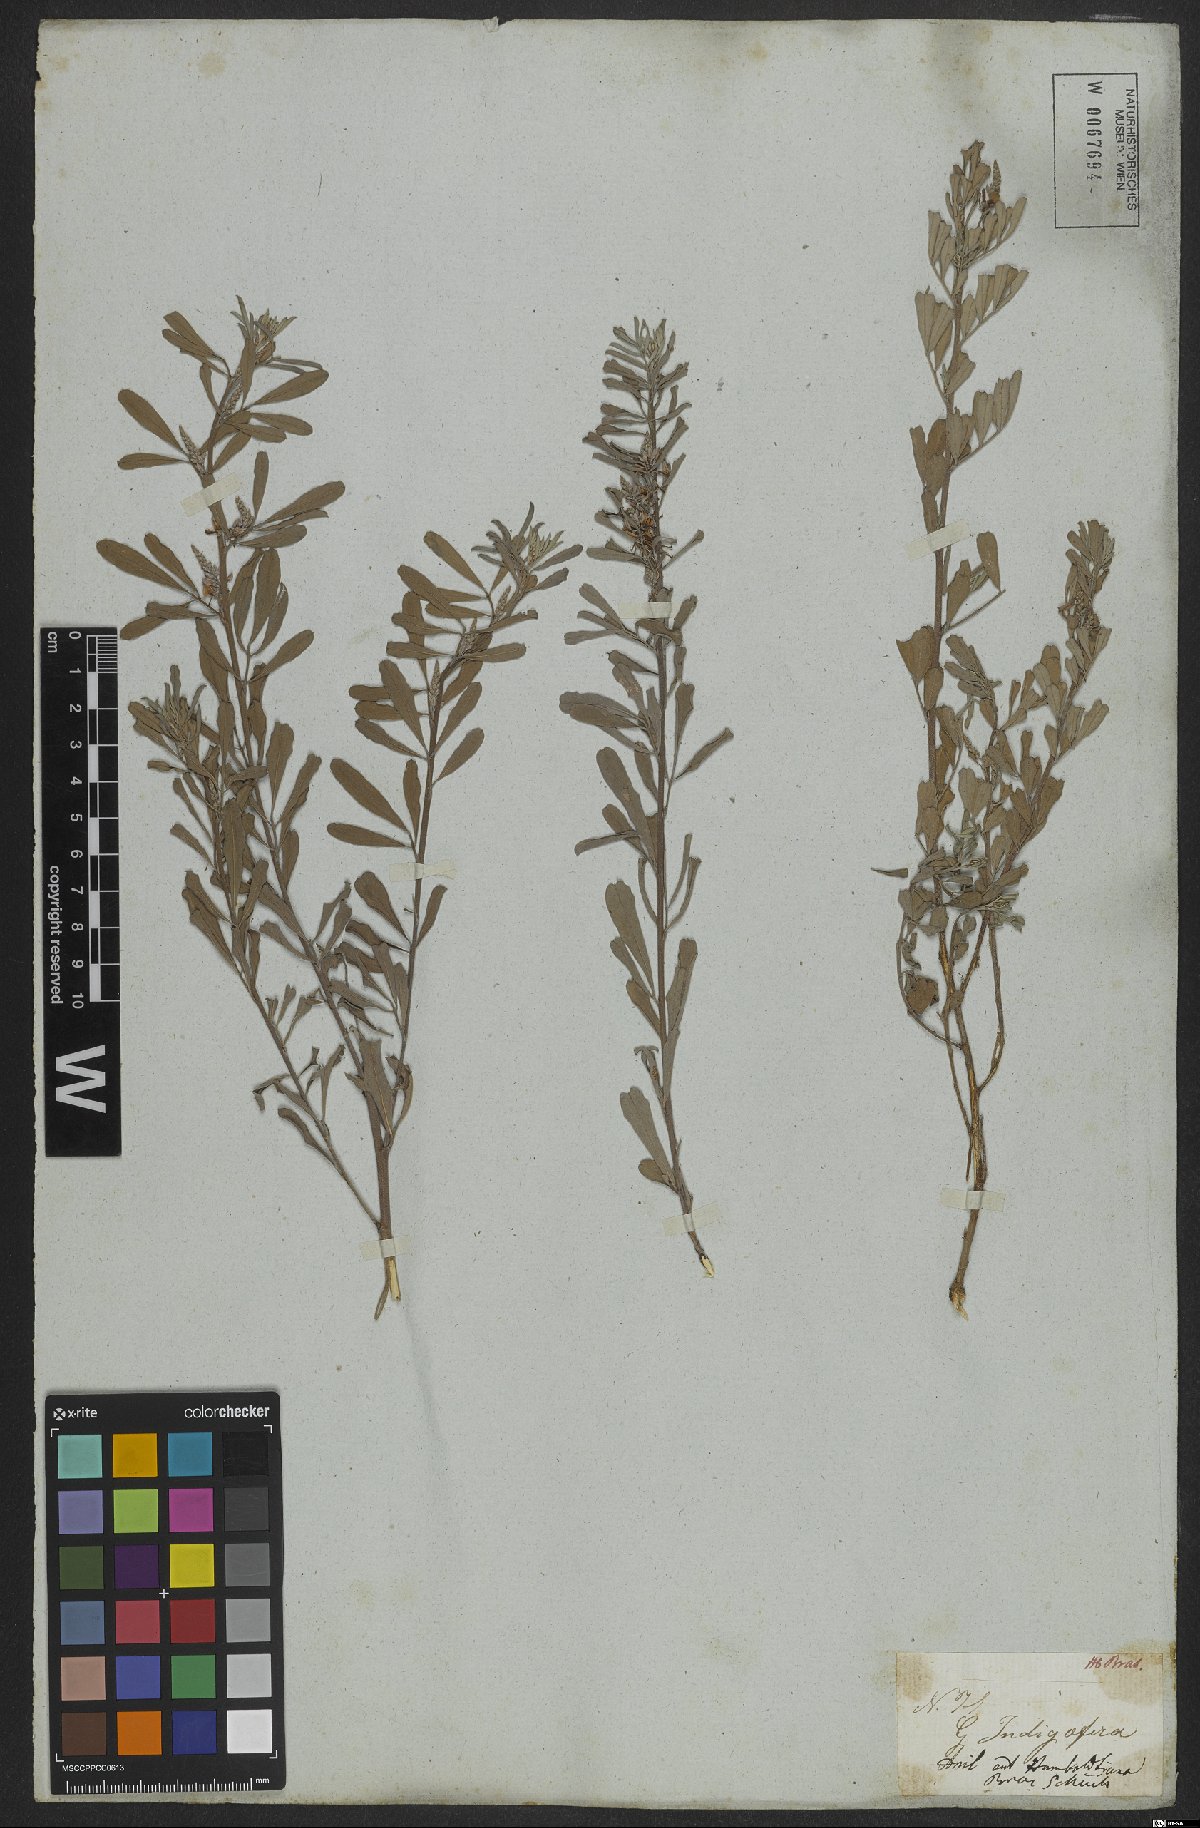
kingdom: Plantae
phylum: Tracheophyta
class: Magnoliopsida
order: Fabales
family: Fabaceae
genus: Indigofera
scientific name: Indigofera lespedezioides
